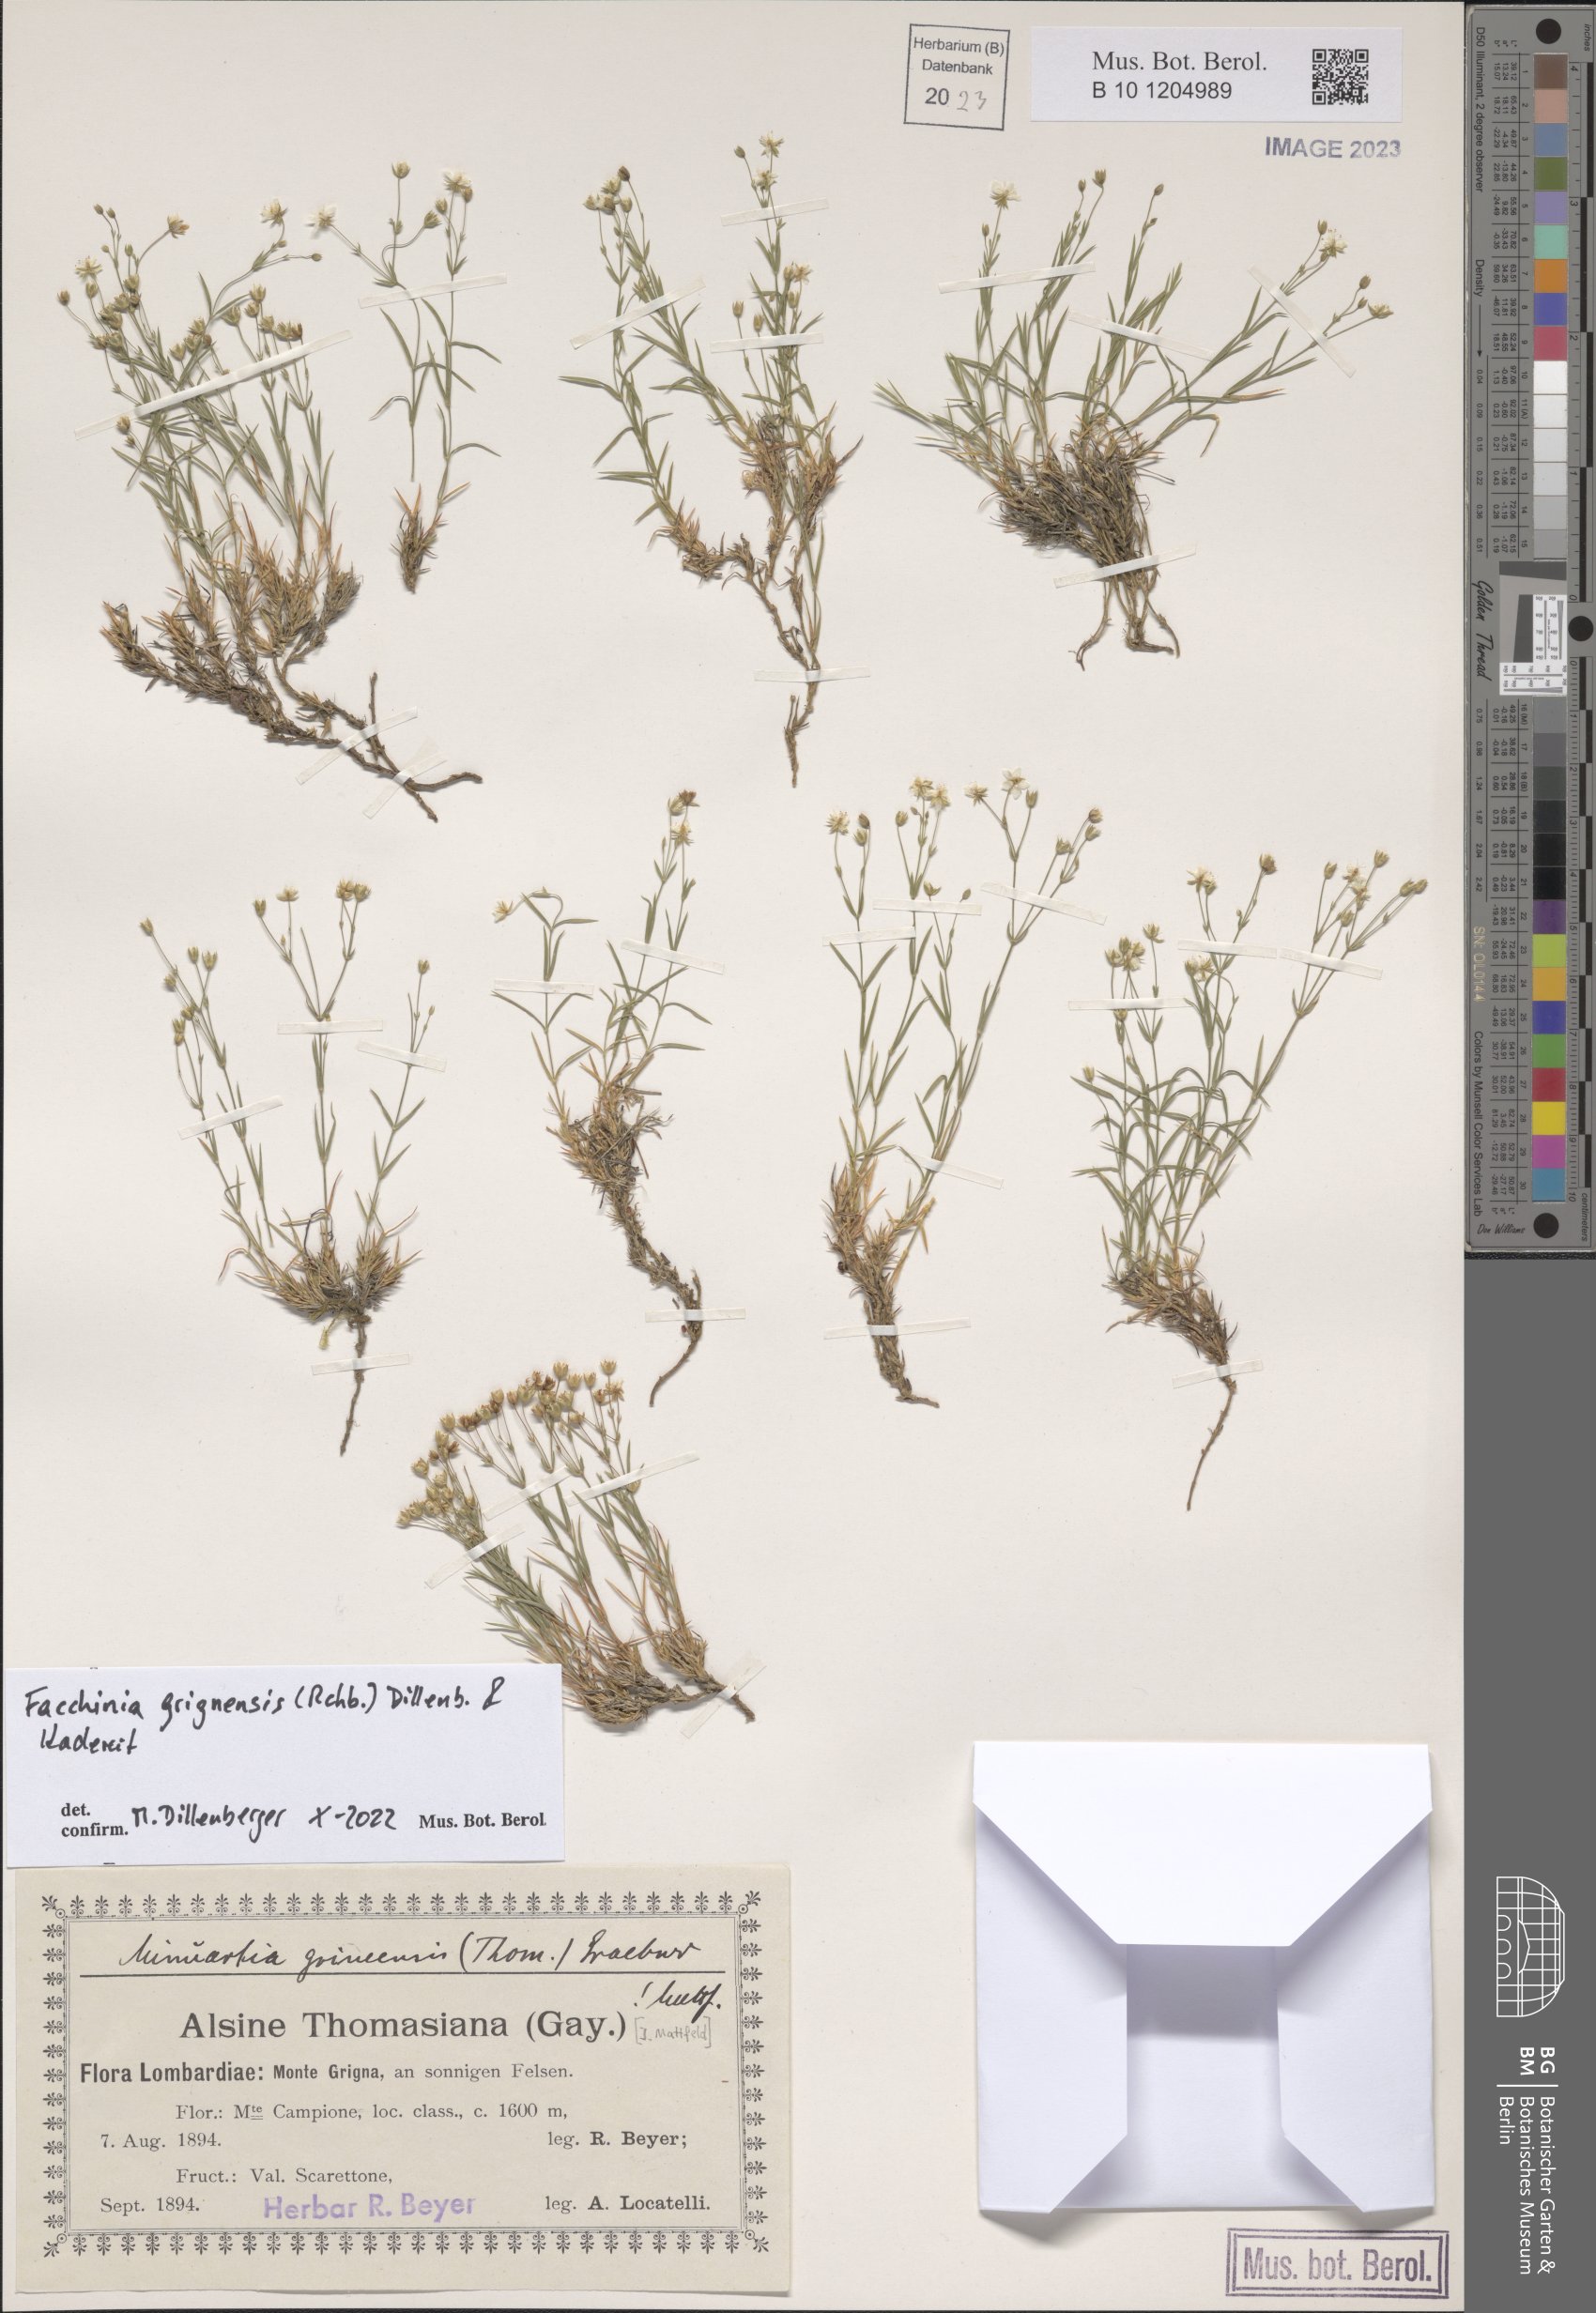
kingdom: Plantae
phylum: Tracheophyta
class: Magnoliopsida
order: Caryophyllales
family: Caryophyllaceae
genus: Facchinia
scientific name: Facchinia grignensis
